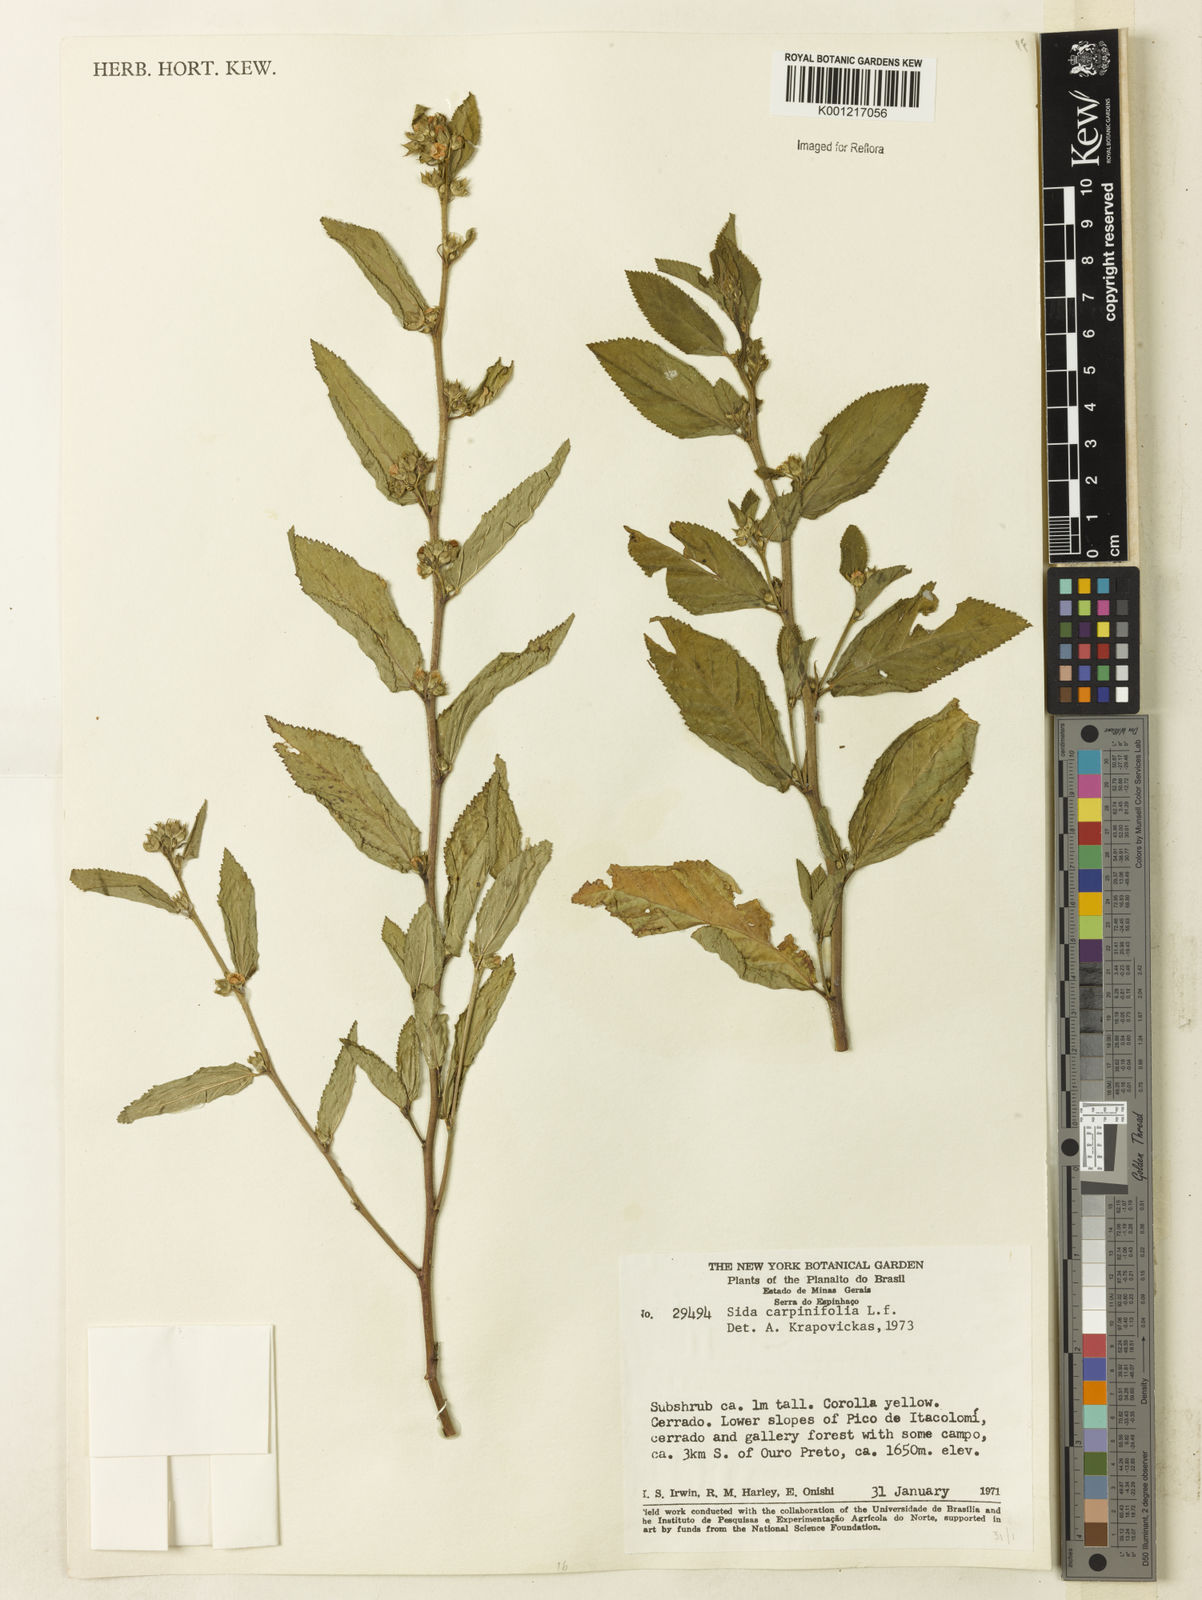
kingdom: Plantae
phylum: Tracheophyta
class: Magnoliopsida
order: Malvales
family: Malvaceae
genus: Sida
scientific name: Sida planicaulis
